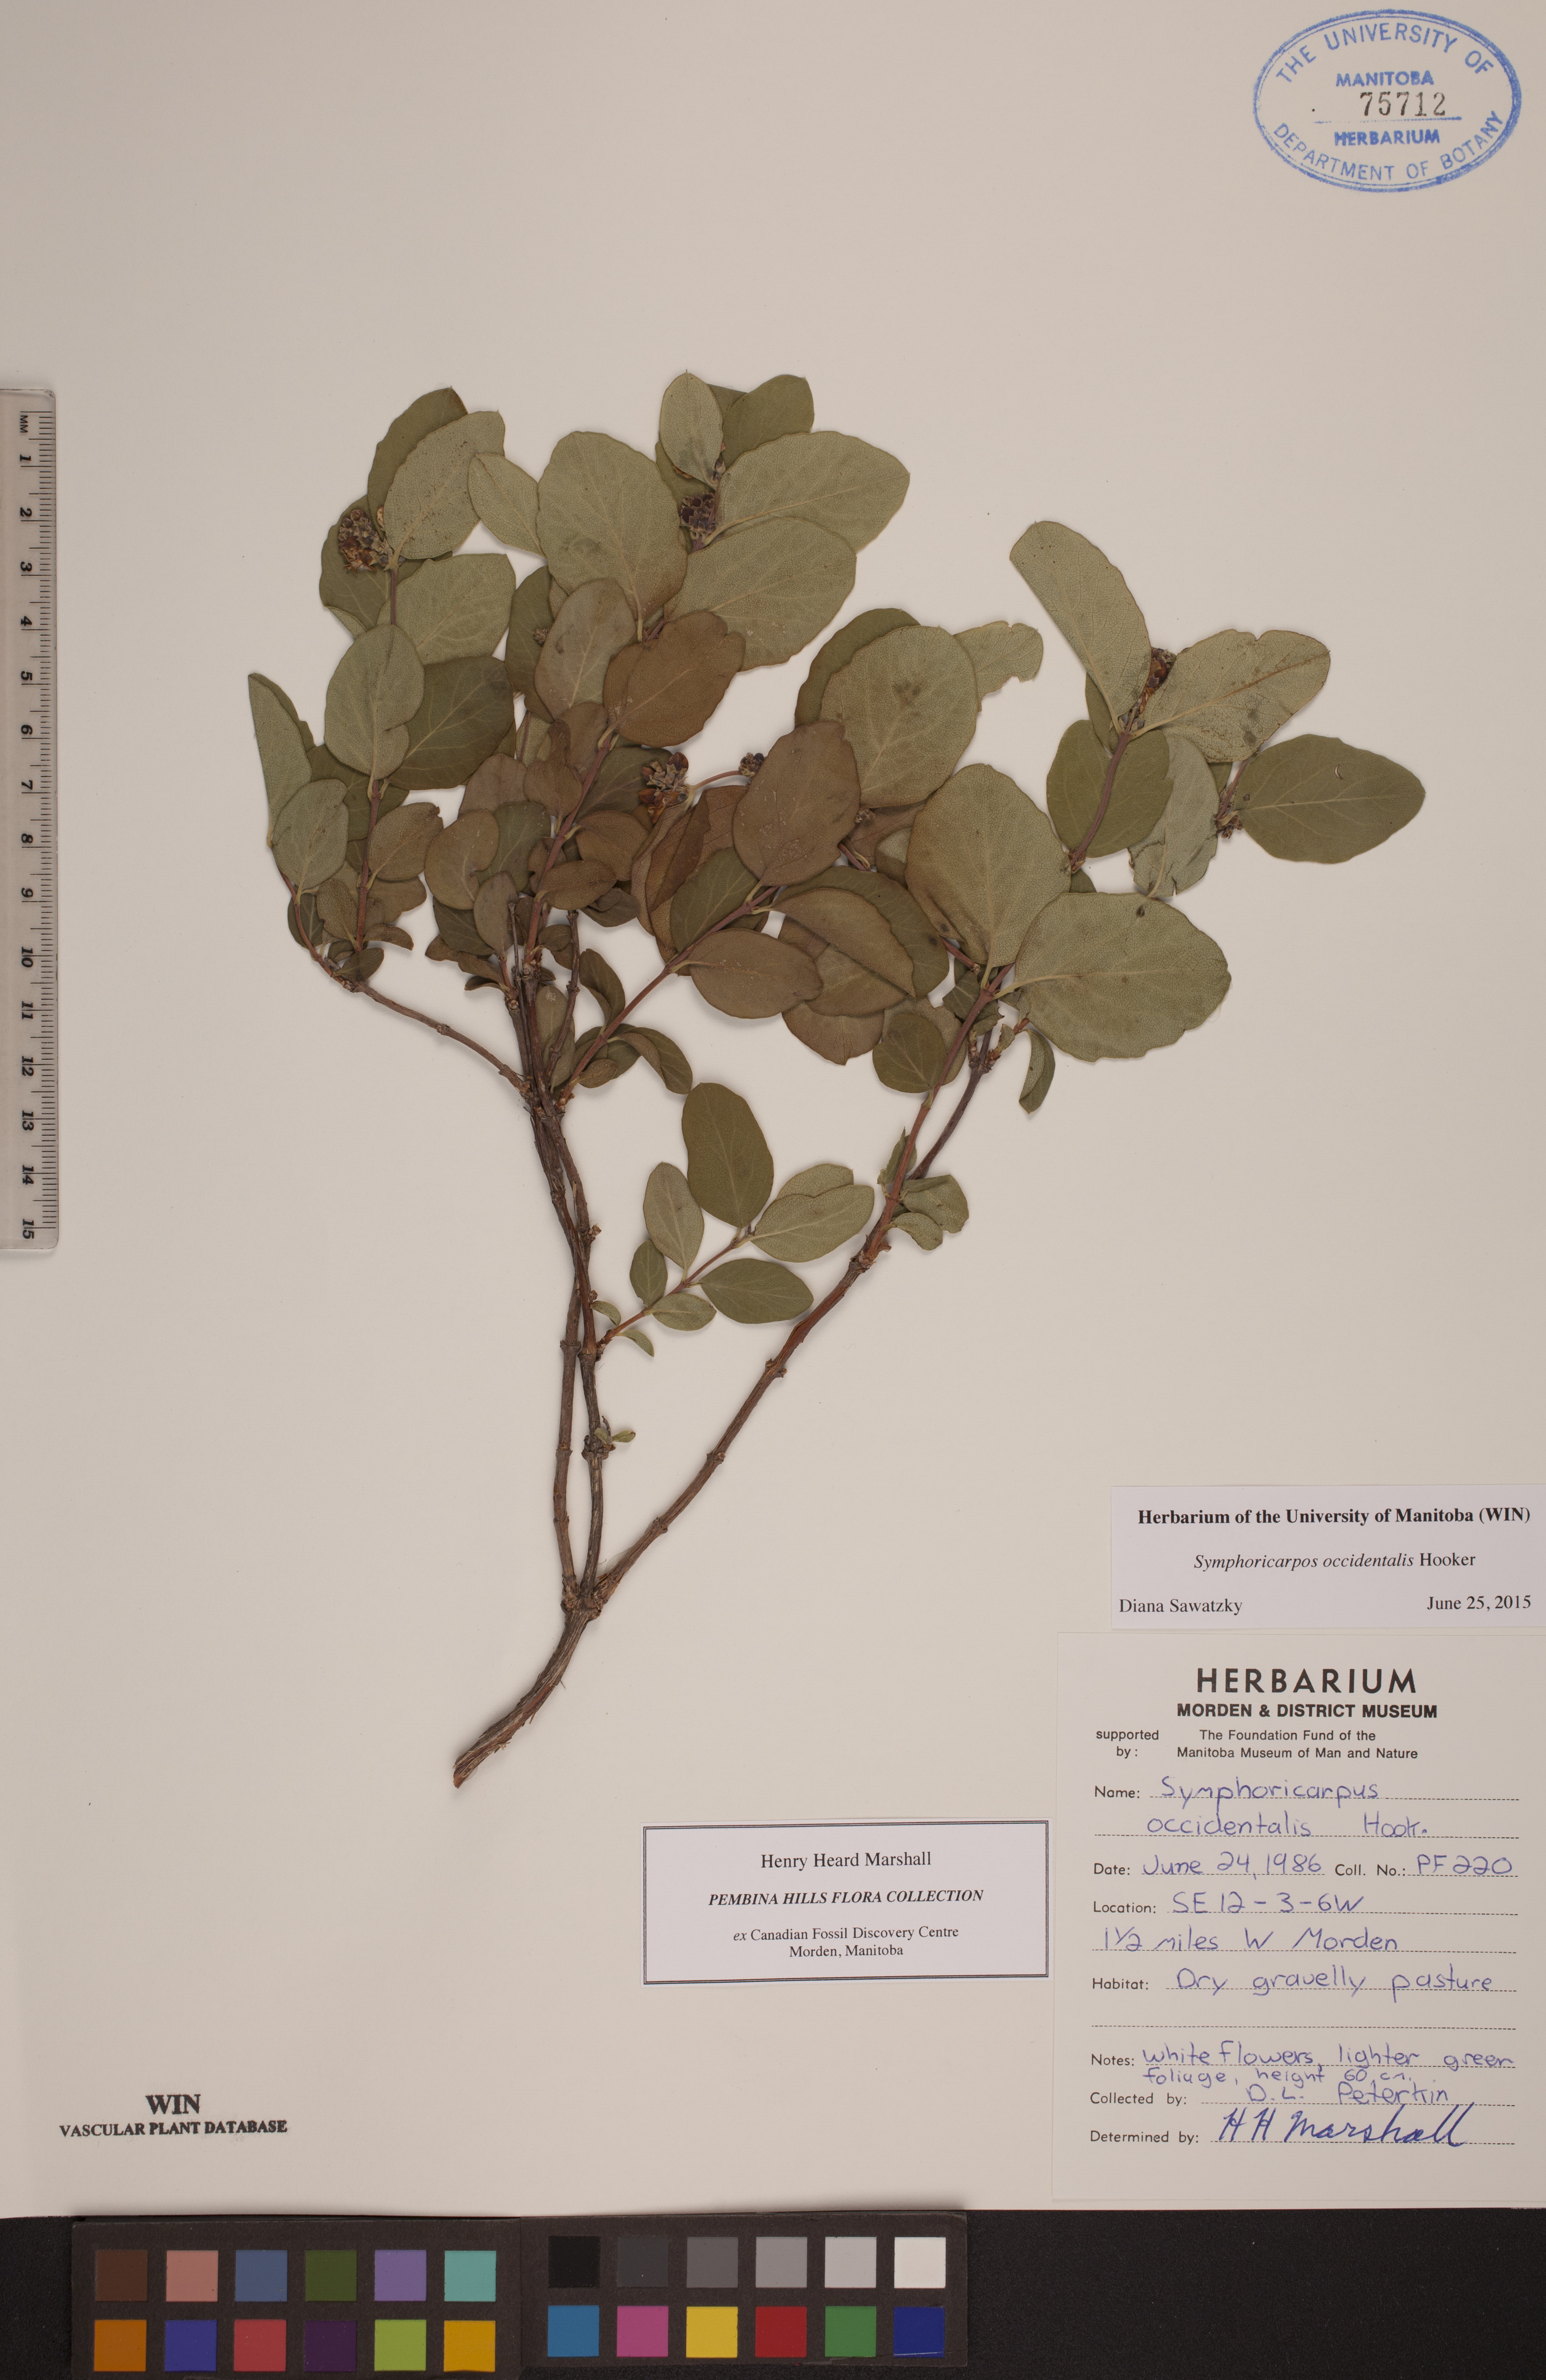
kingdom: Plantae
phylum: Tracheophyta
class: Magnoliopsida
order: Dipsacales
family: Caprifoliaceae
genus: Symphoricarpos
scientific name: Symphoricarpos albus
